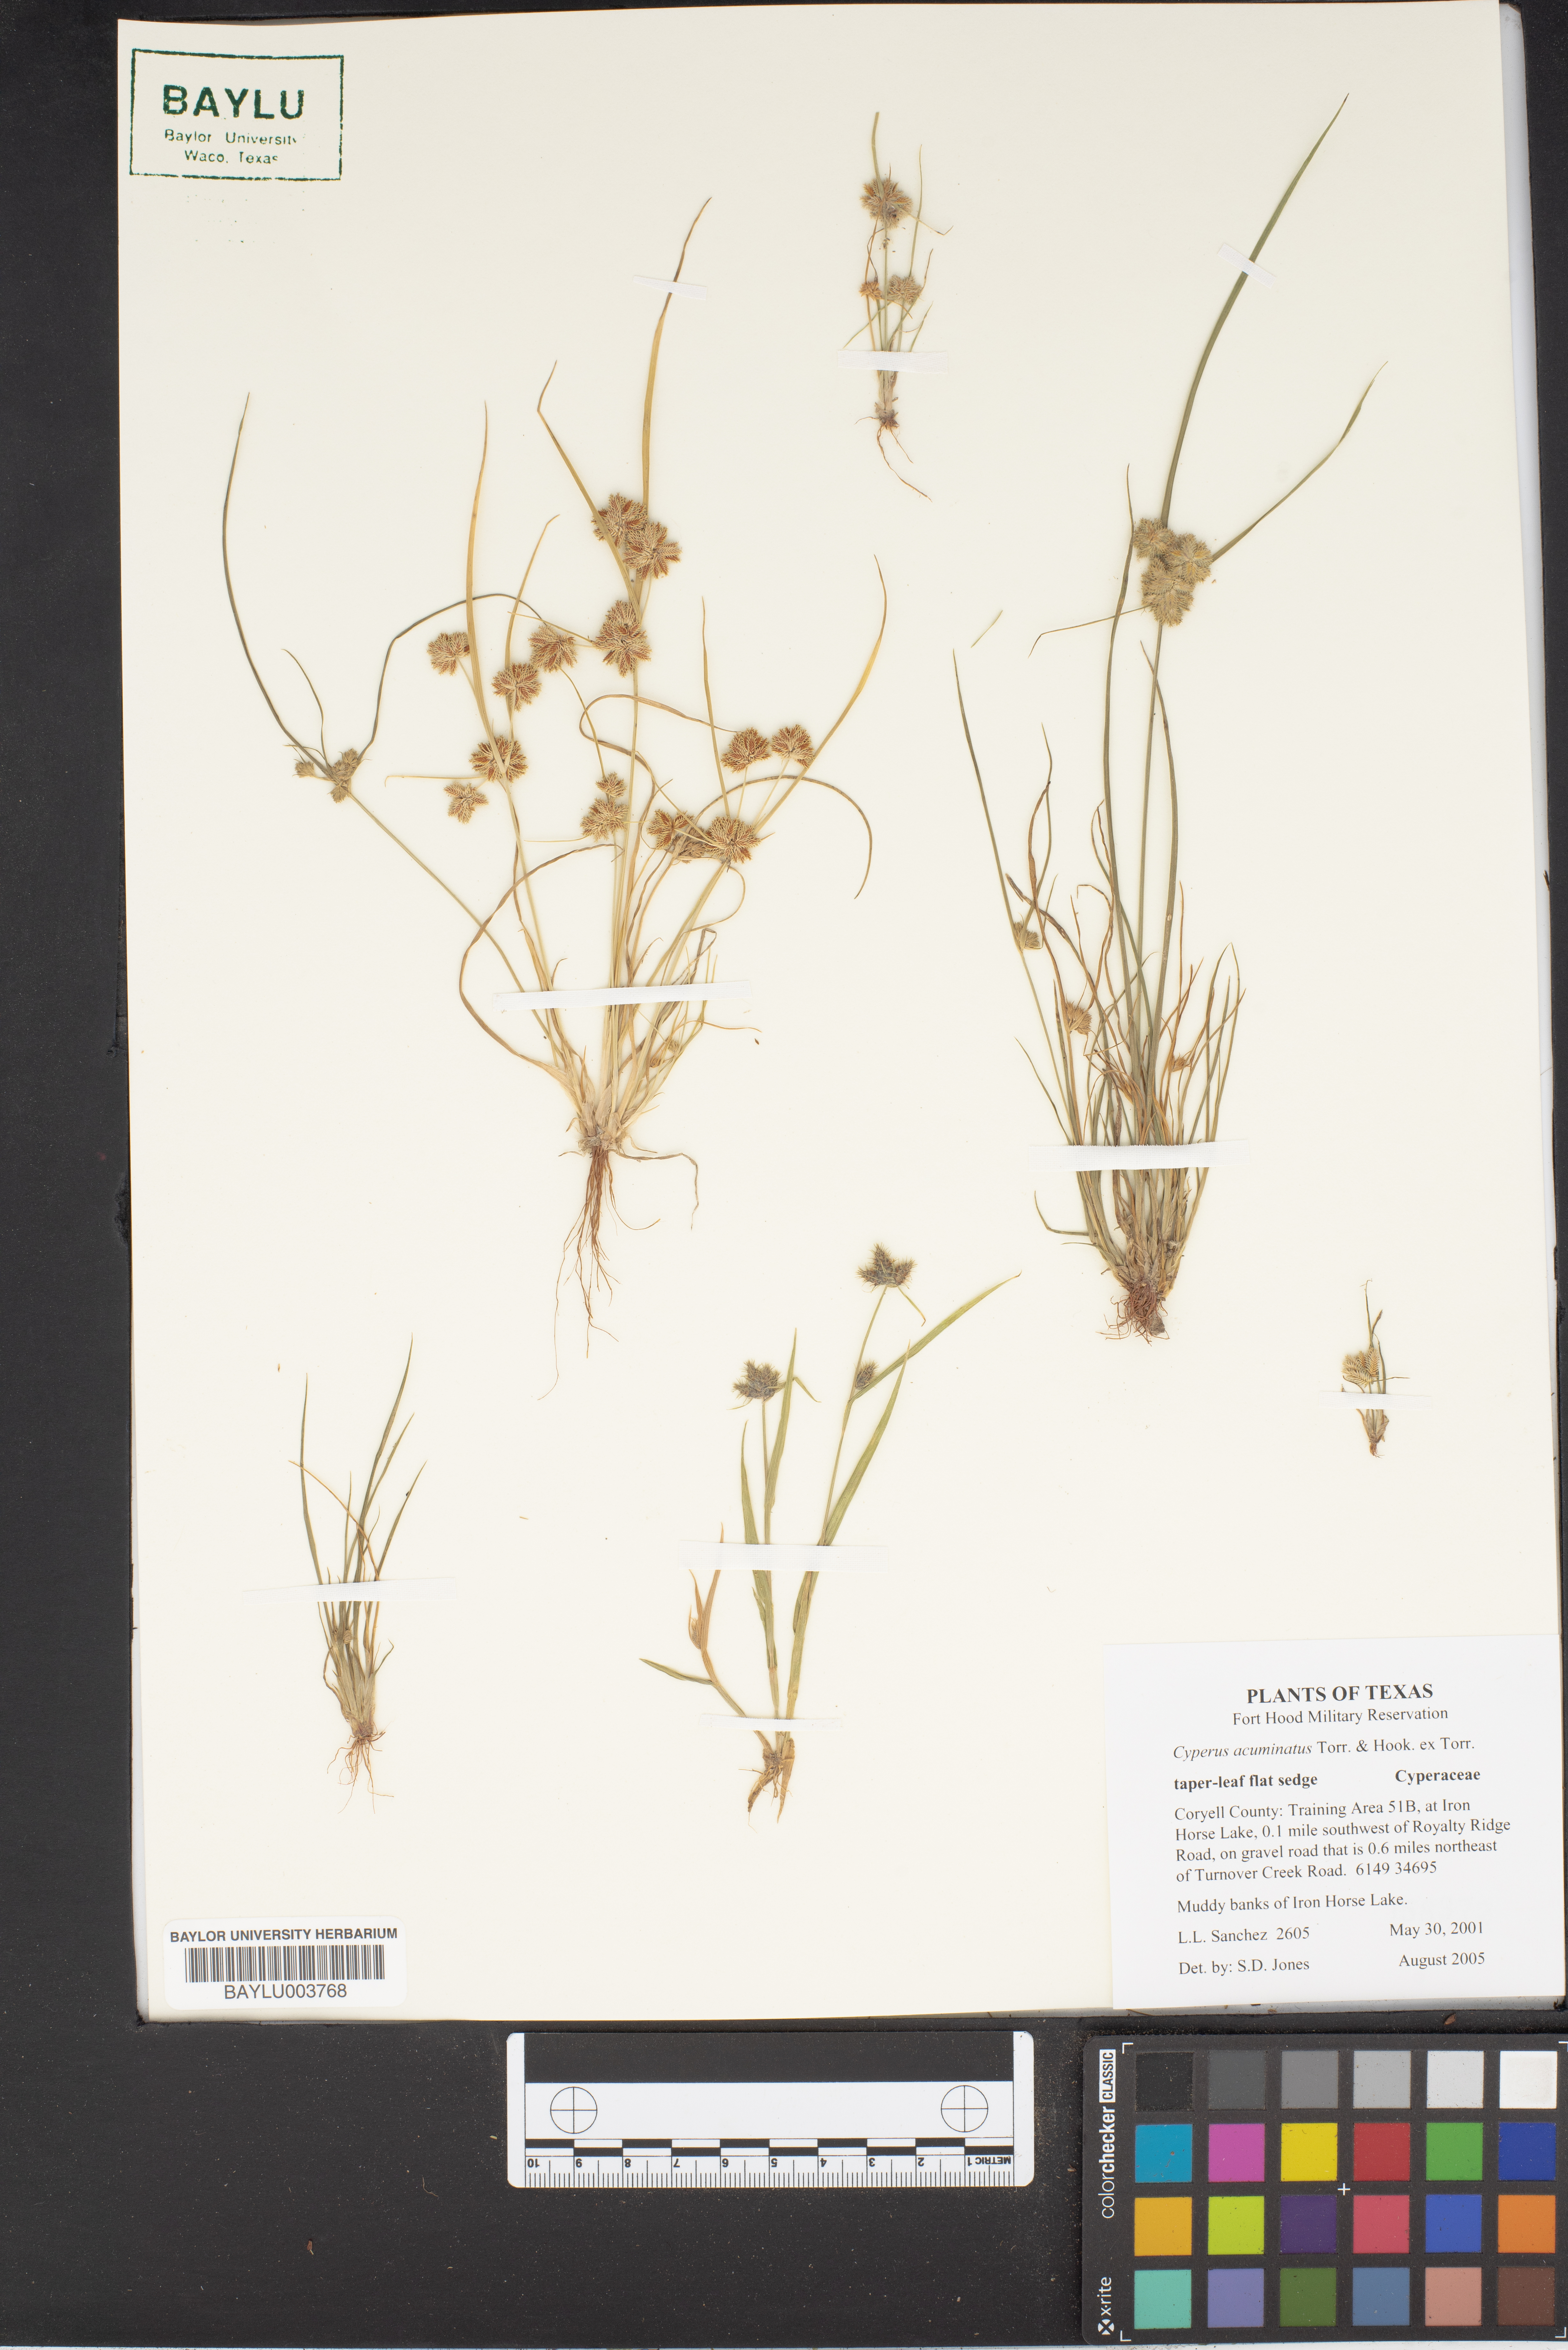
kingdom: Plantae
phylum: Tracheophyta
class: Liliopsida
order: Poales
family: Cyperaceae
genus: Cyperus
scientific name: Cyperus acuminatus
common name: Short-pointed cyperus
